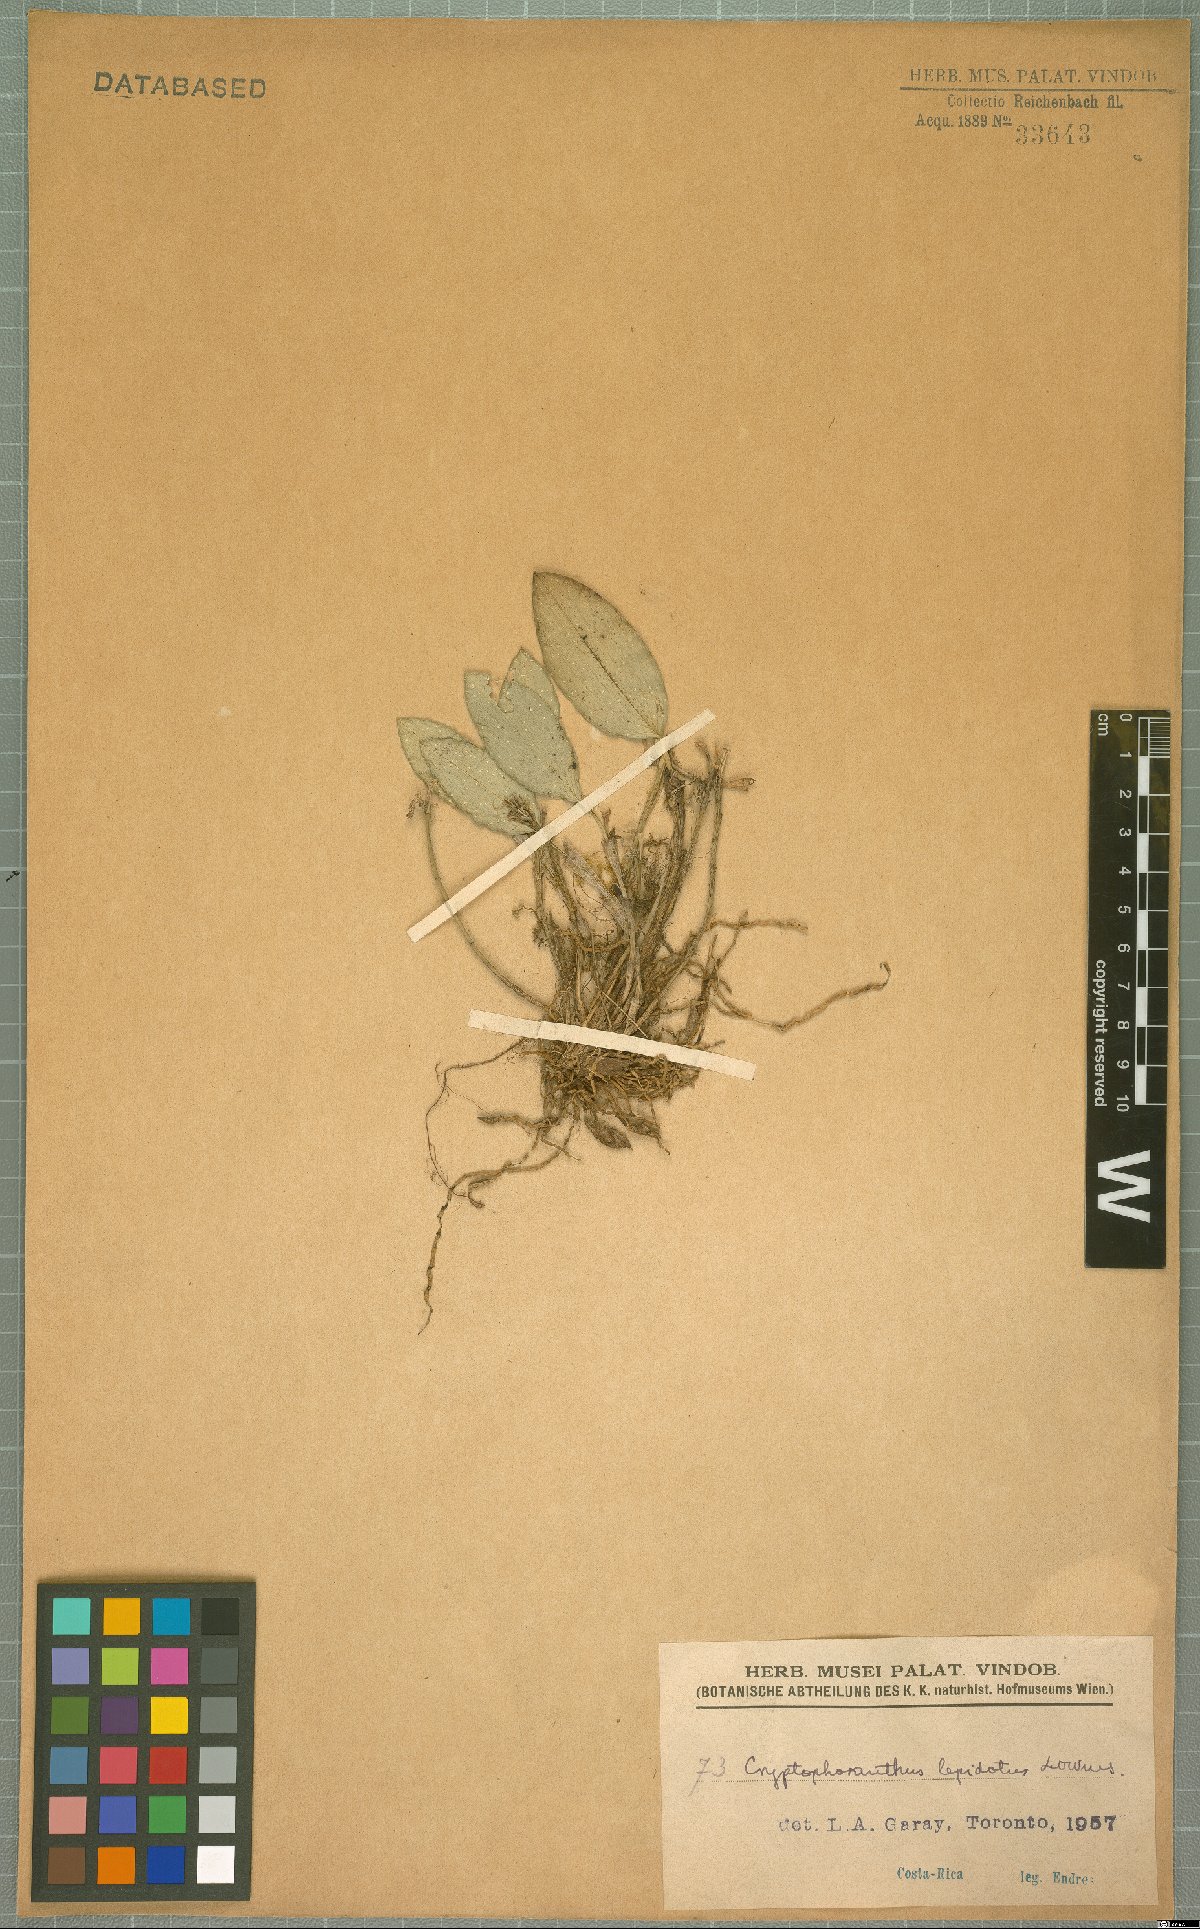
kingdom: Plantae
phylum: Tracheophyta
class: Liliopsida
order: Asparagales
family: Orchidaceae
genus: Zootrophion
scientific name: Zootrophion gracilentum
